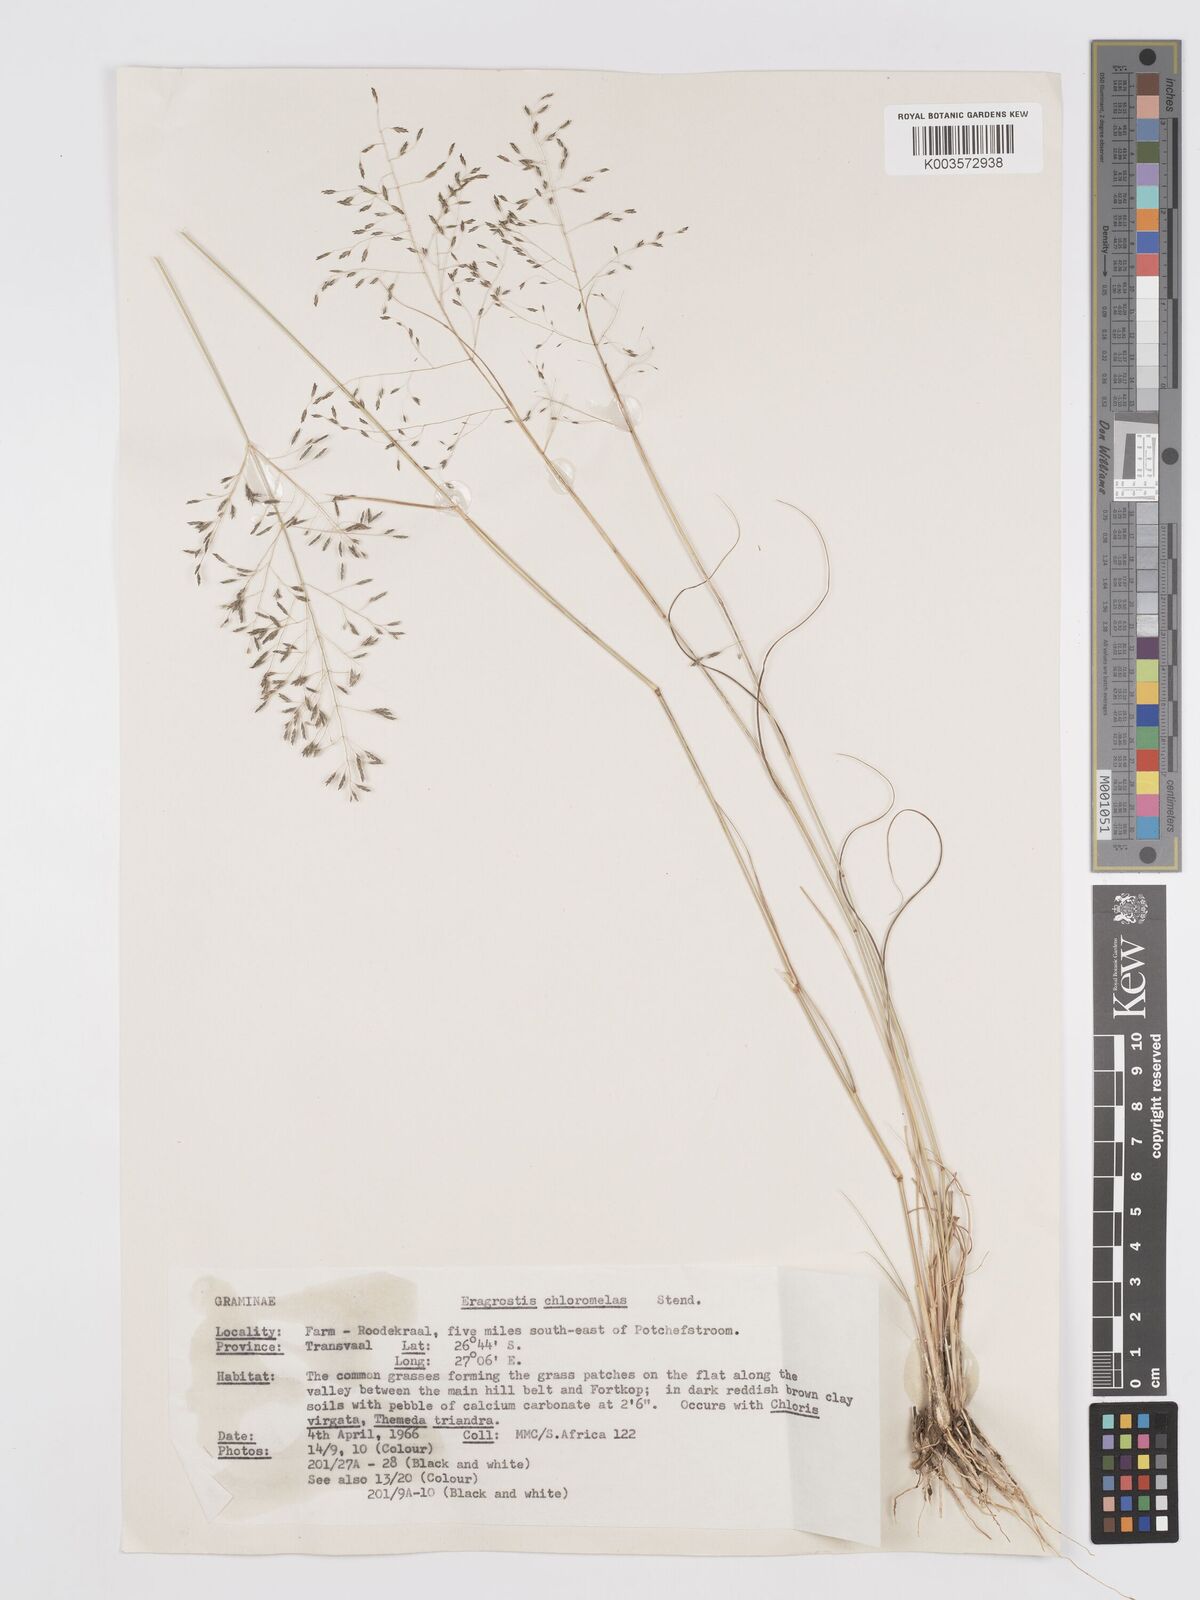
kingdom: Plantae
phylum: Tracheophyta
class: Liliopsida
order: Poales
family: Poaceae
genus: Eragrostis
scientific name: Eragrostis curvula
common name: African love-grass
